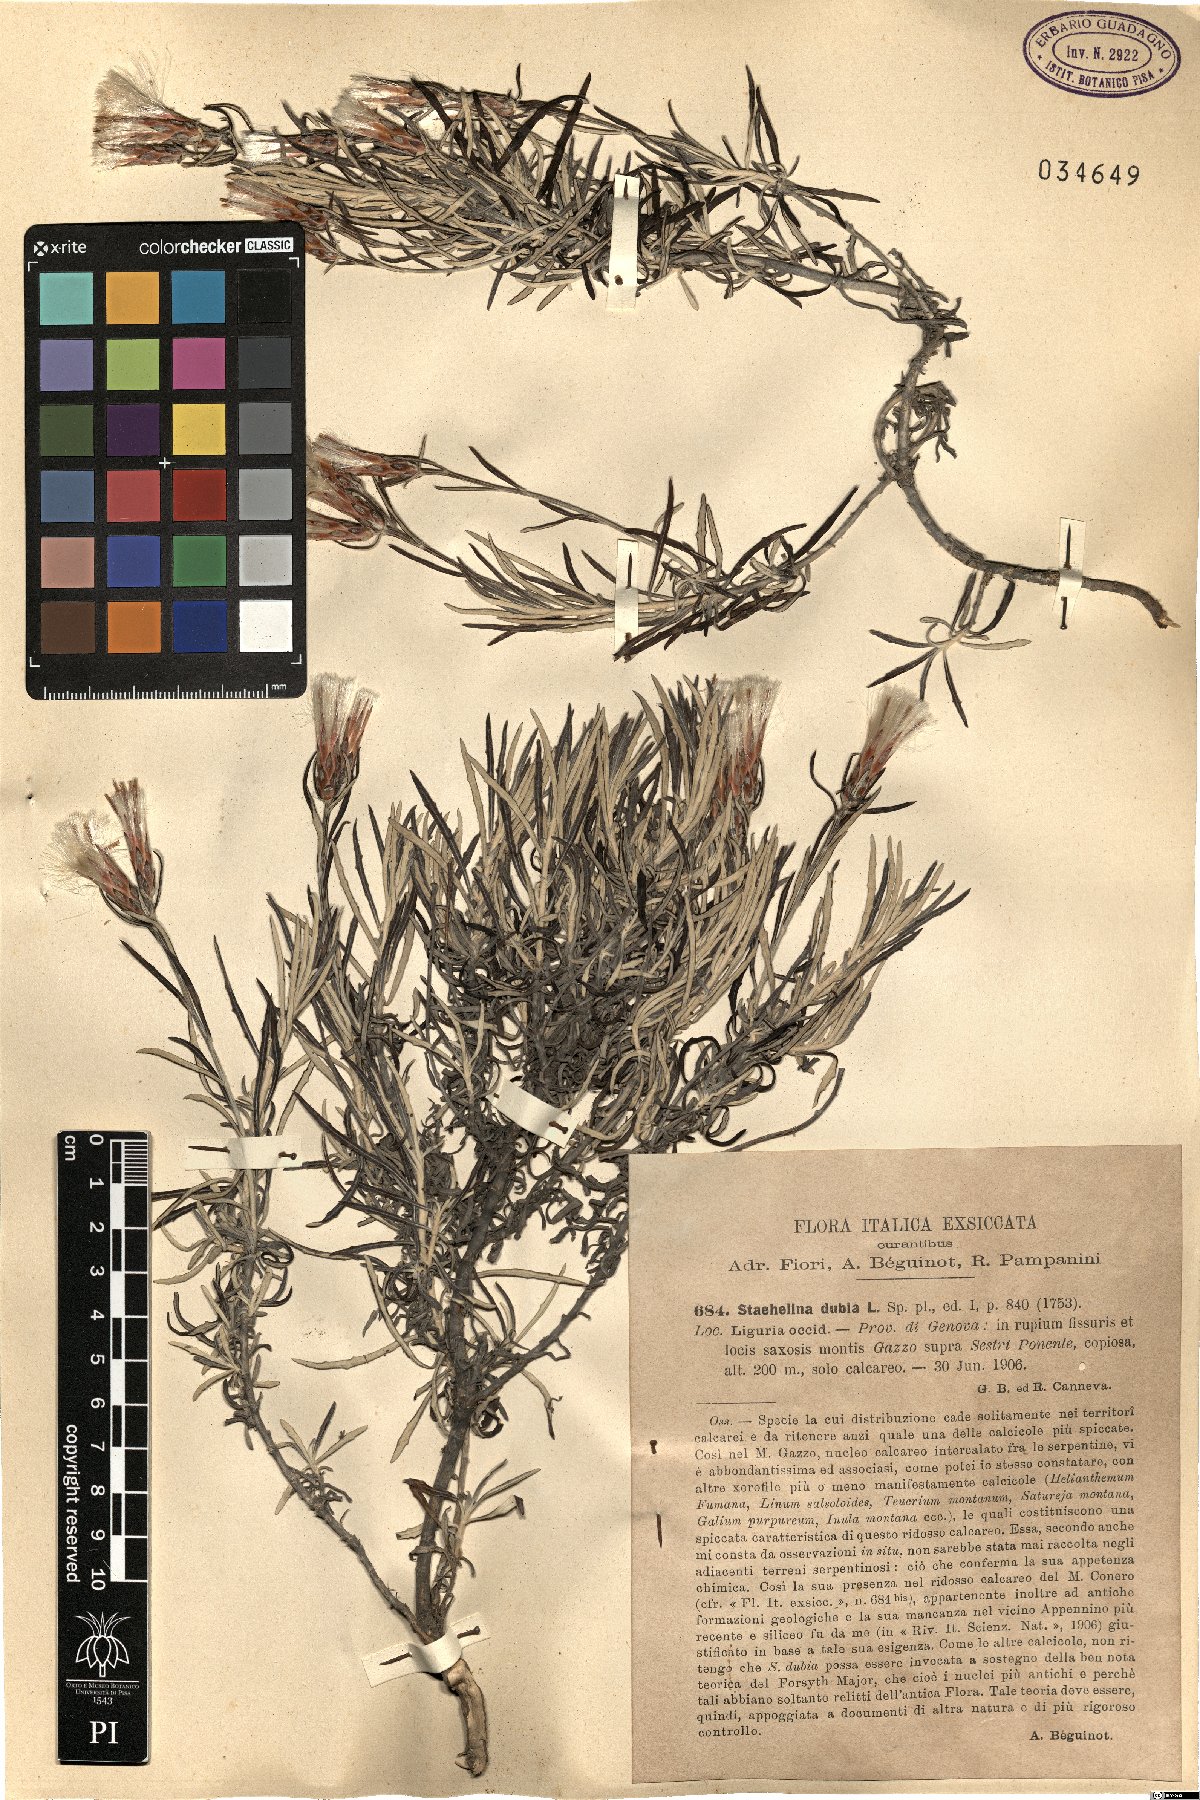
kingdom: Plantae
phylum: Tracheophyta
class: Magnoliopsida
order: Asterales
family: Asteraceae
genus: Staehelina
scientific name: Staehelina dubia
